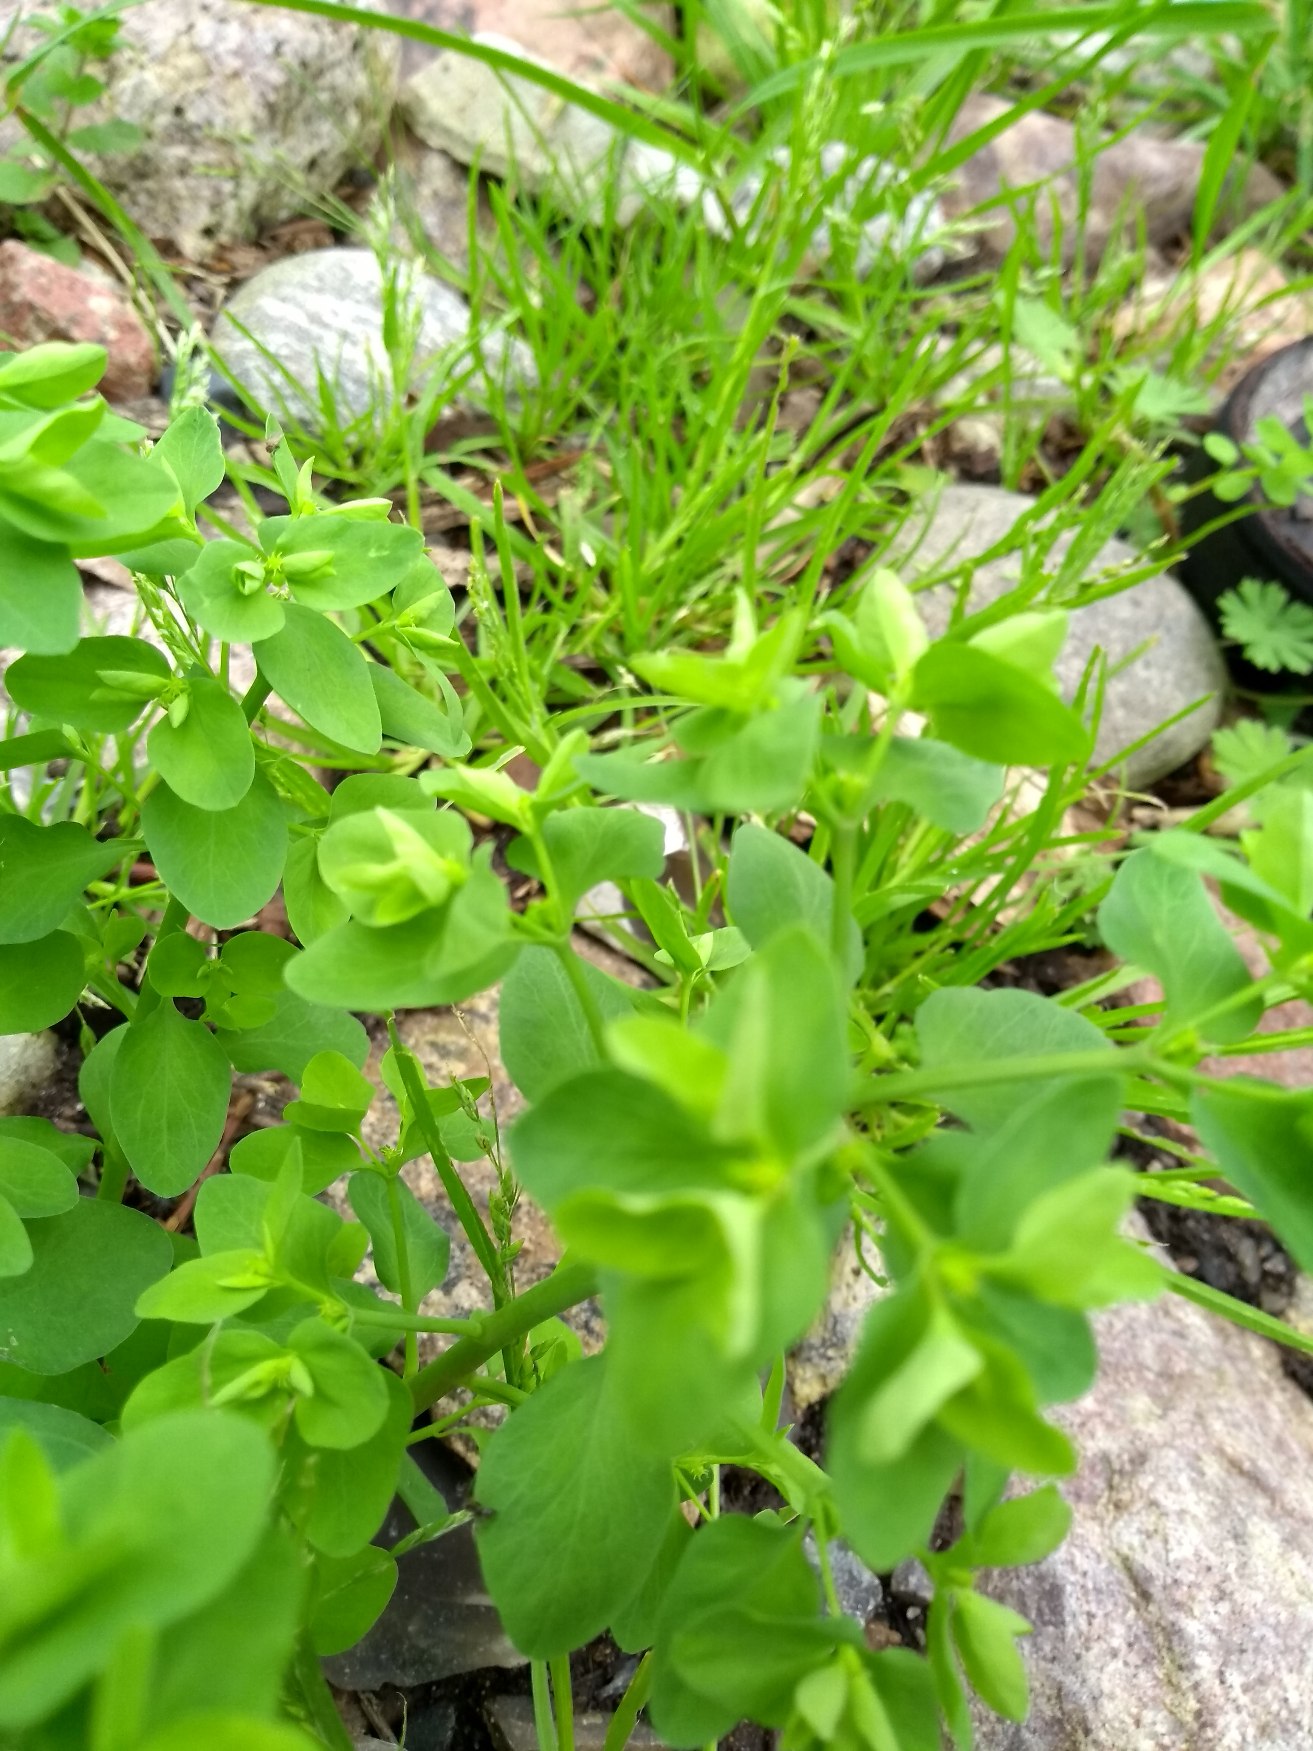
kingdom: Plantae
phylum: Tracheophyta
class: Magnoliopsida
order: Malpighiales
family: Euphorbiaceae
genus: Euphorbia
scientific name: Euphorbia peplus
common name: Gaffel-vortemælk
